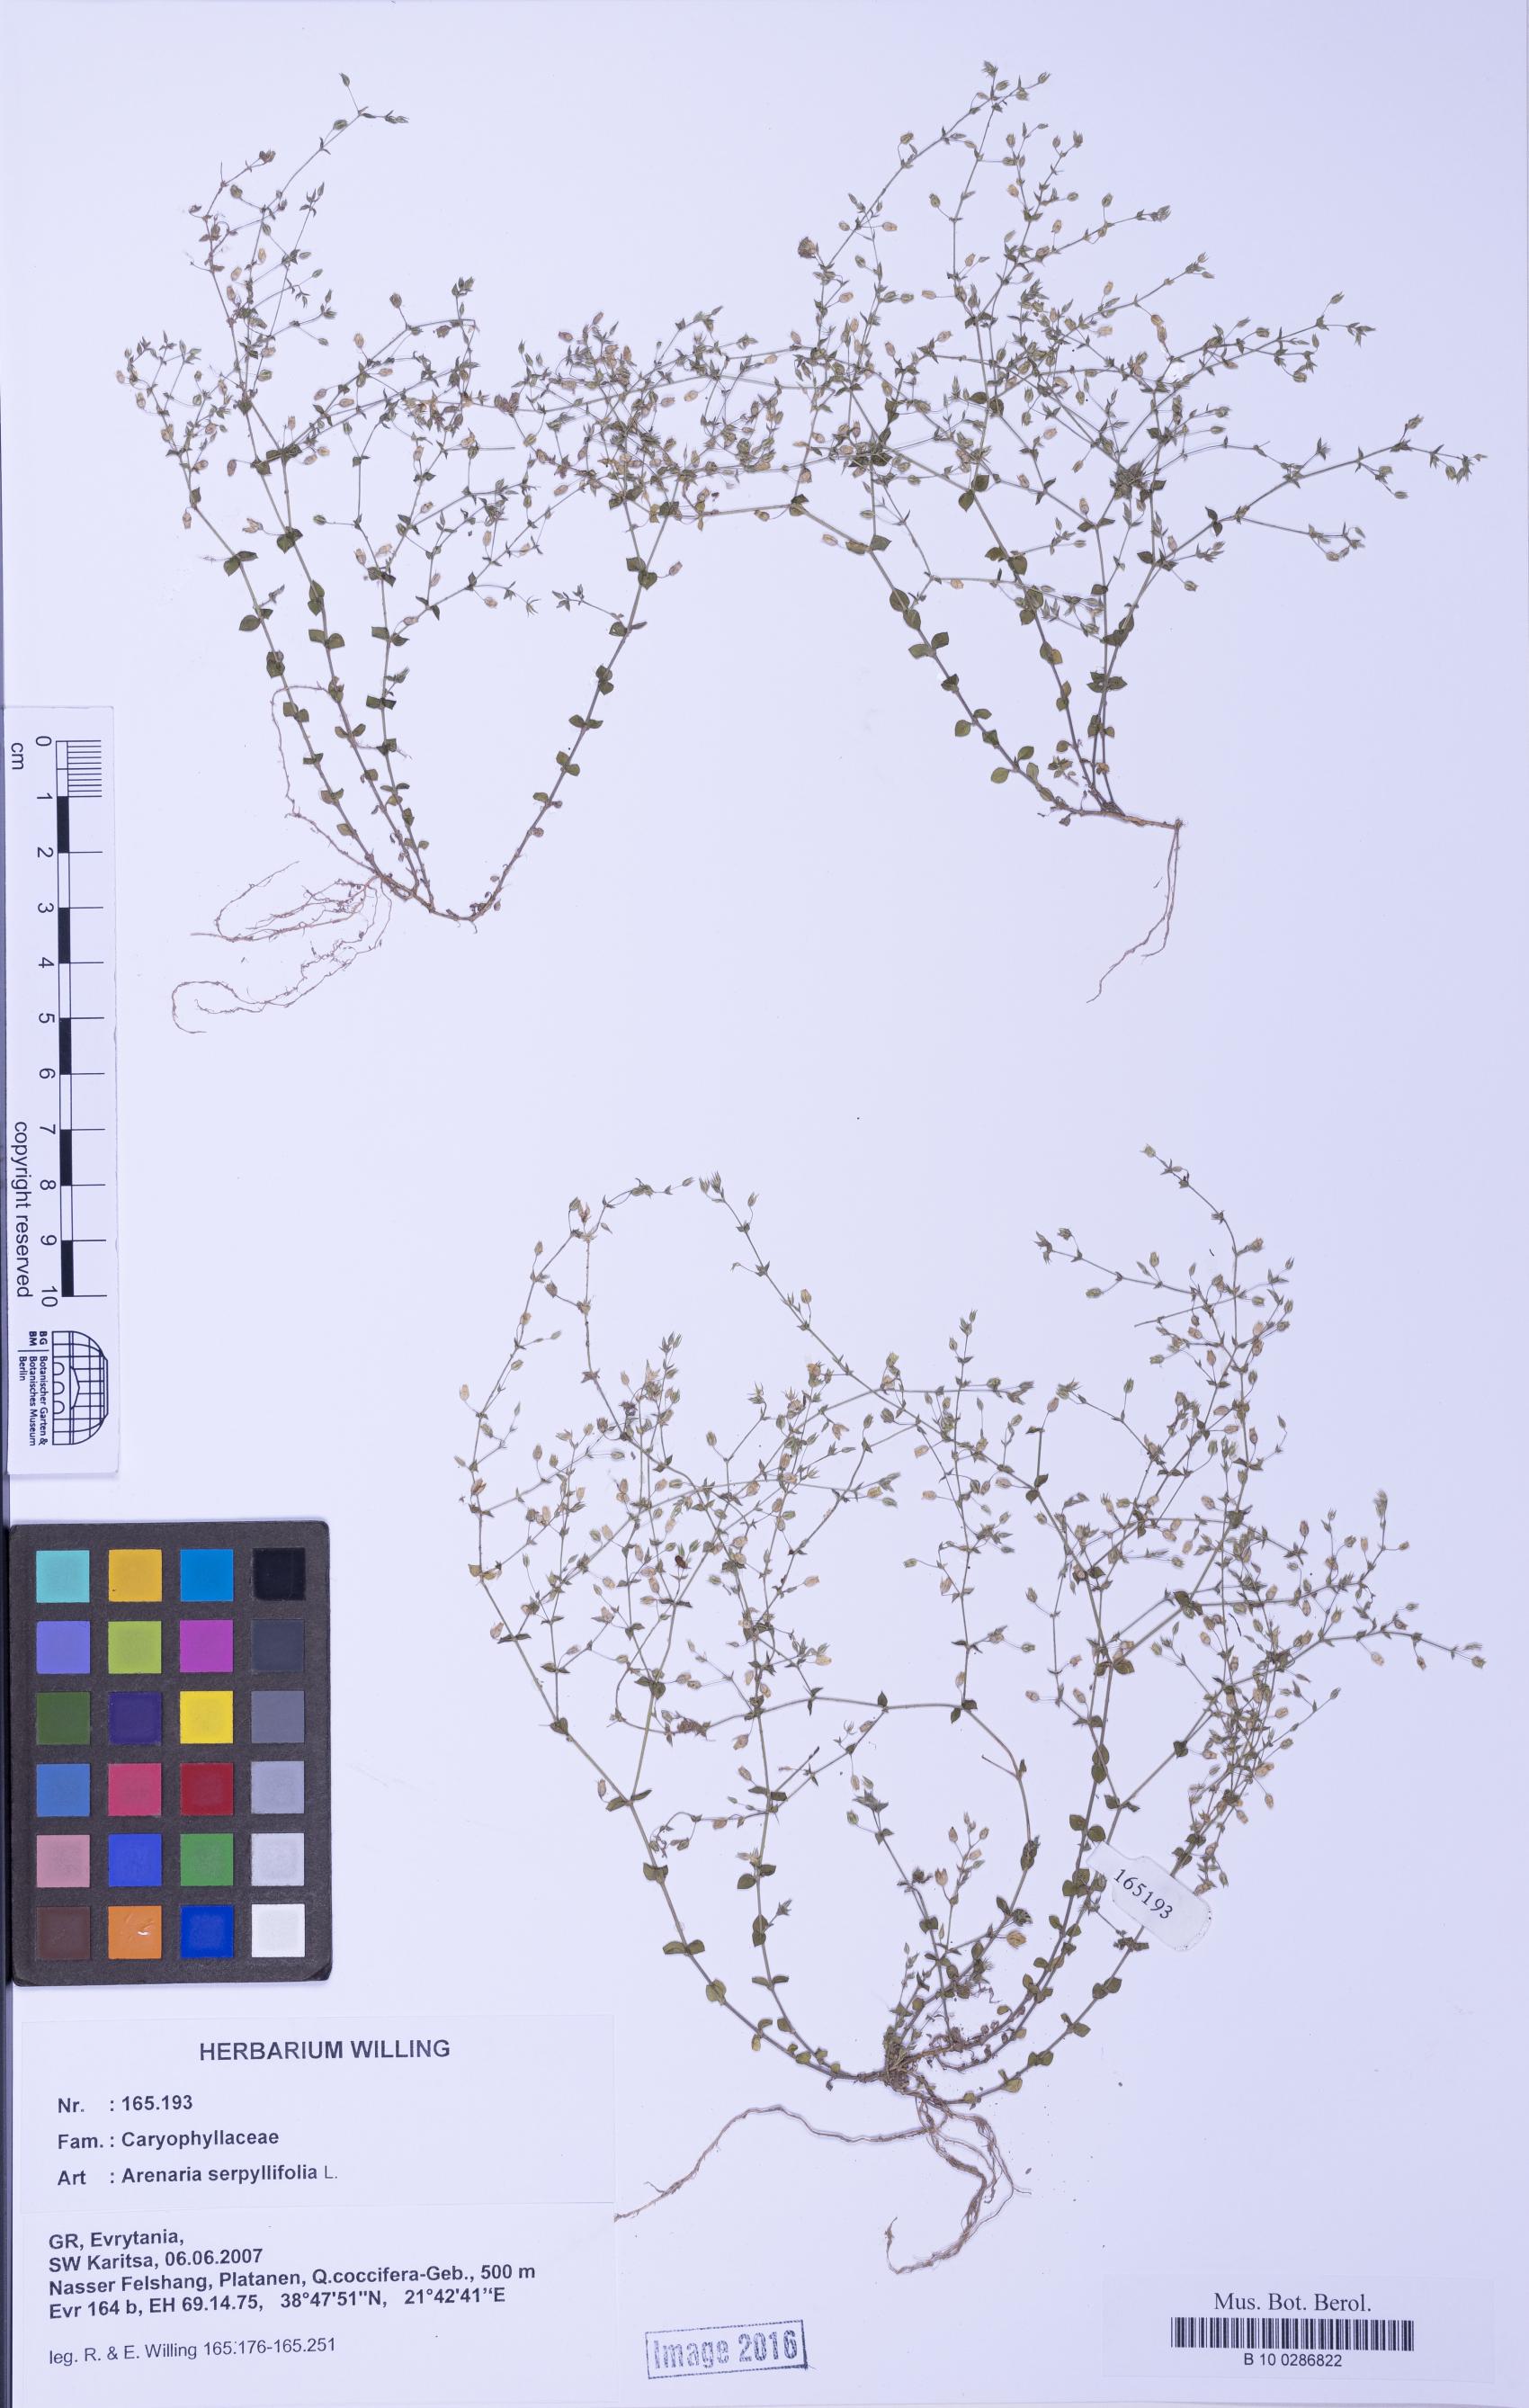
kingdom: Plantae
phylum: Tracheophyta
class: Magnoliopsida
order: Caryophyllales
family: Caryophyllaceae
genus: Arenaria
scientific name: Arenaria serpyllifolia
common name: Thyme-leaved sandwort
